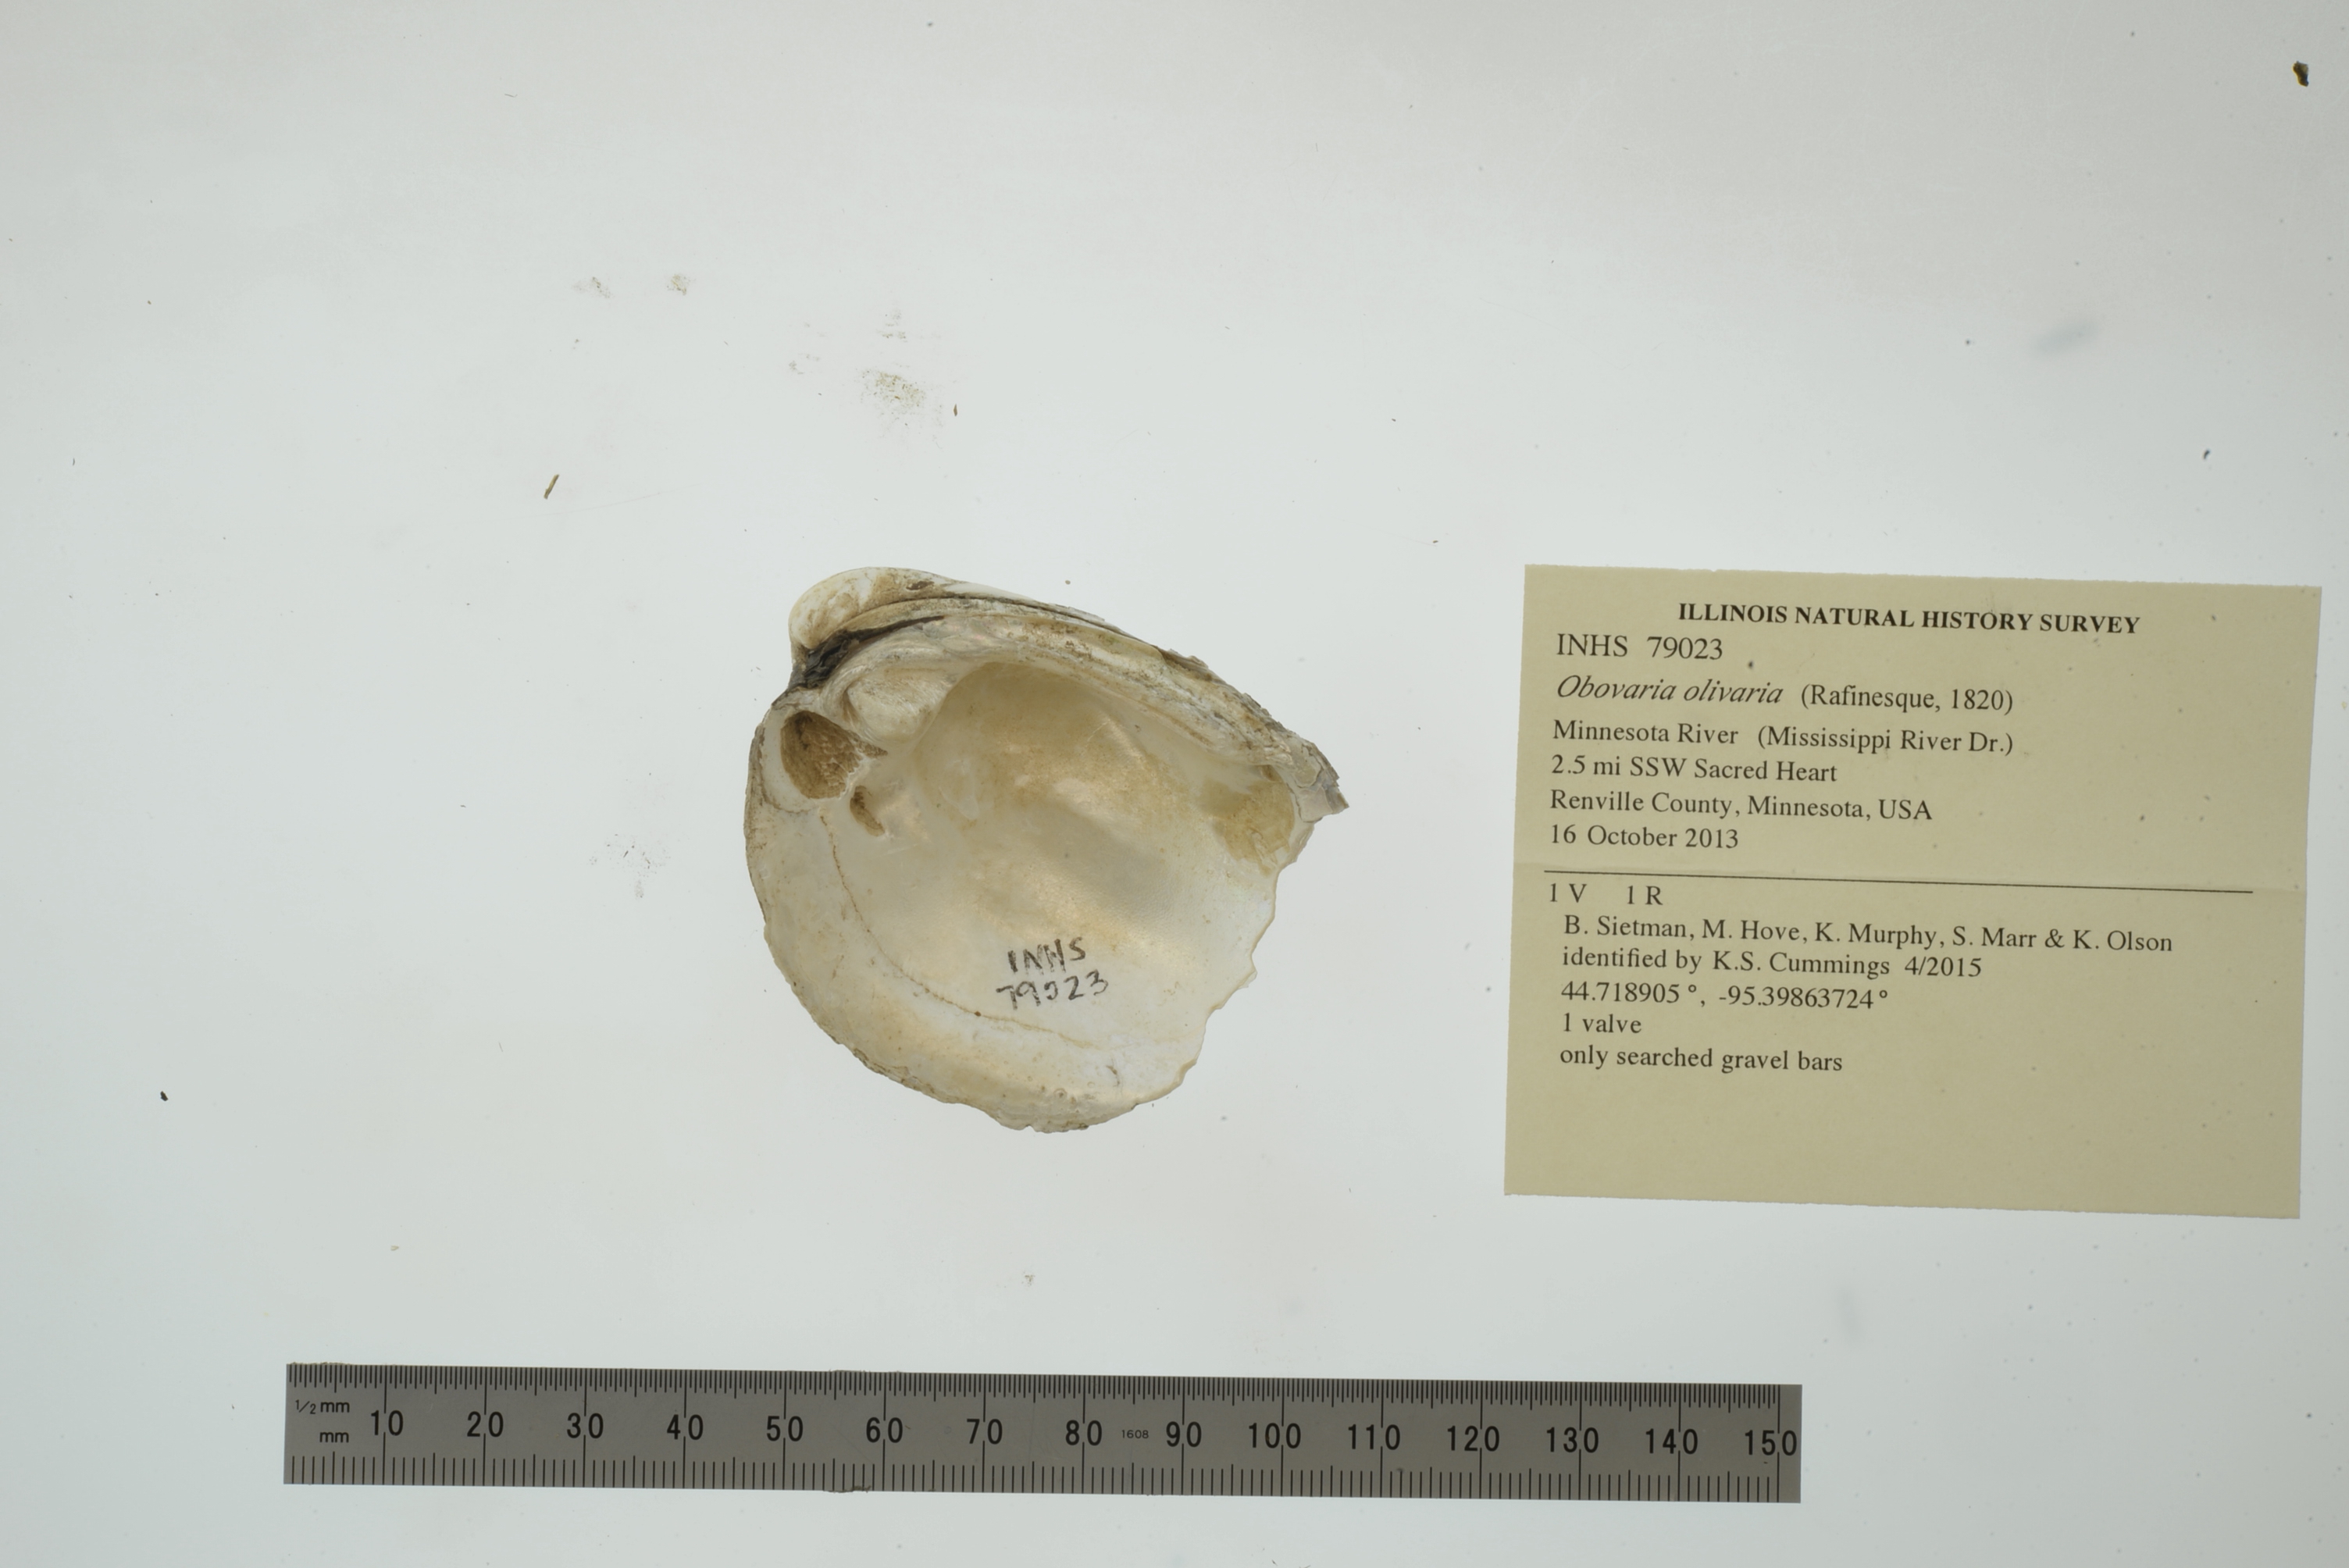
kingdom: Animalia
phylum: Mollusca
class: Bivalvia
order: Unionida
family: Unionidae
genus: Obovaria
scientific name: Obovaria olivaria
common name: Hickorynut
